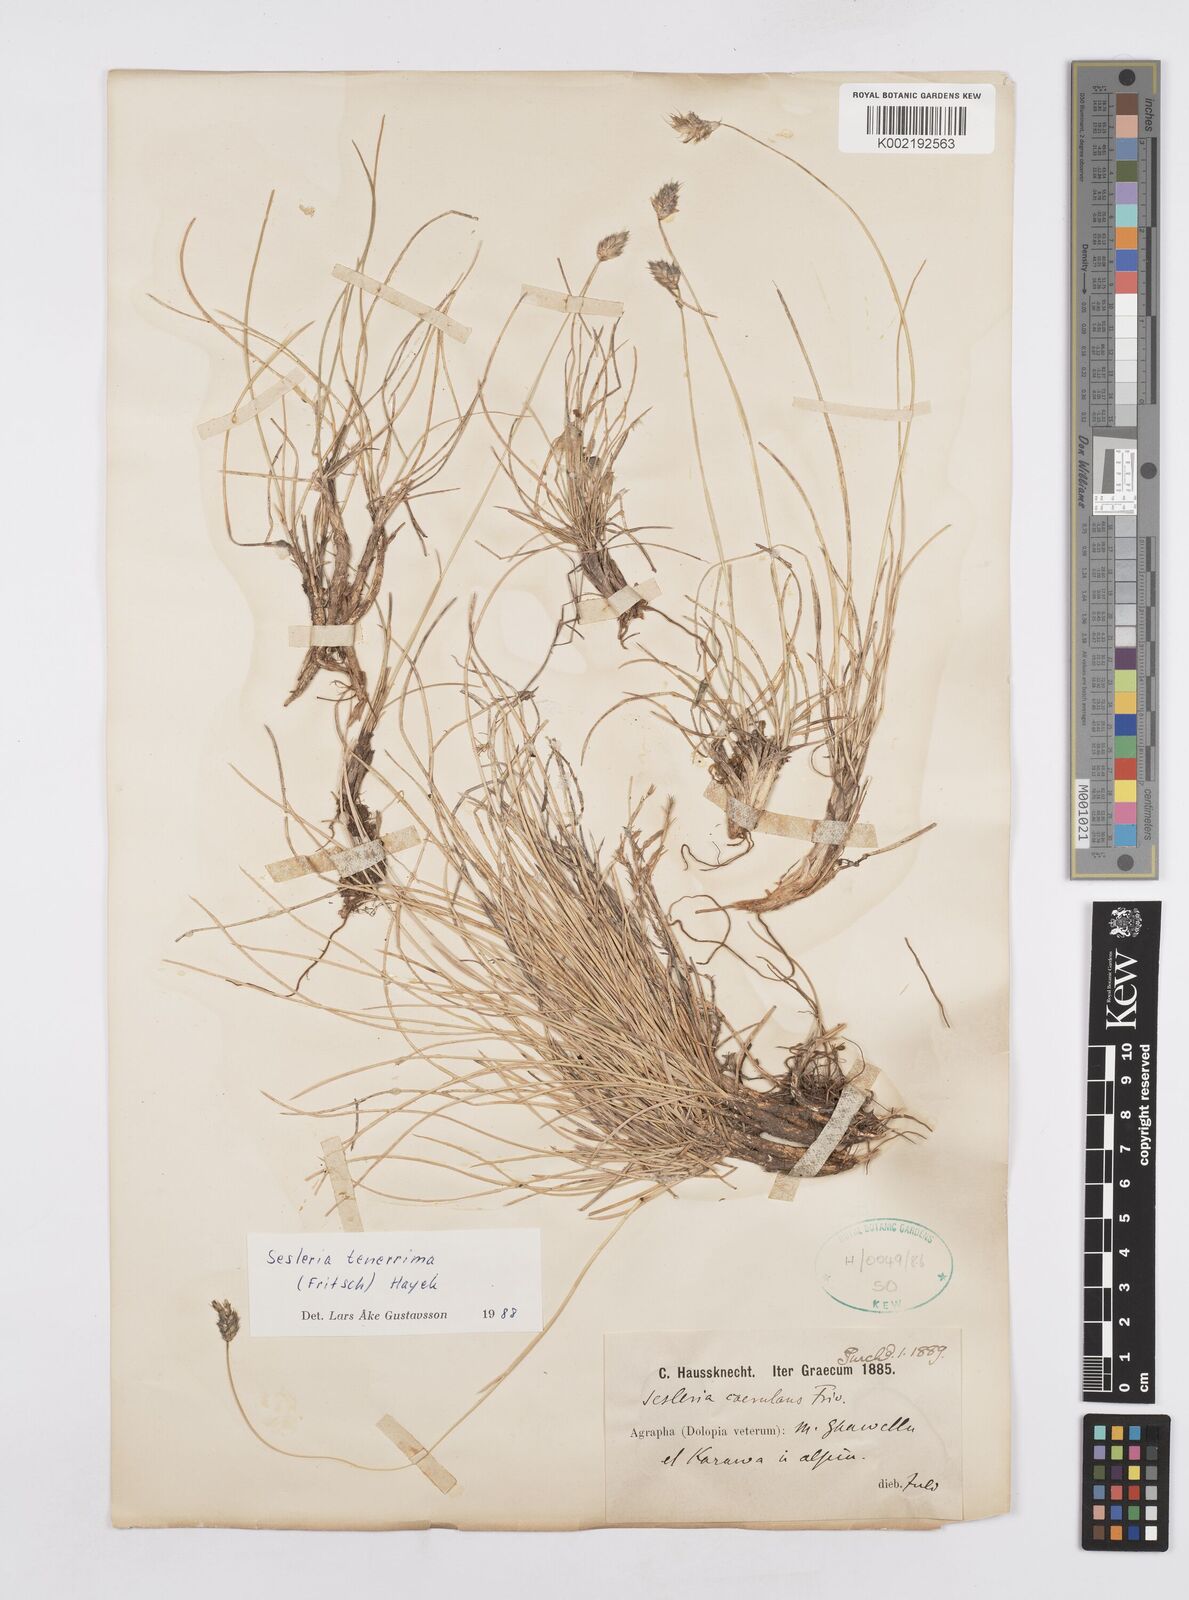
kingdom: Plantae
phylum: Tracheophyta
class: Liliopsida
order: Poales
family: Poaceae
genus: Sesleria
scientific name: Sesleria tenerrima
